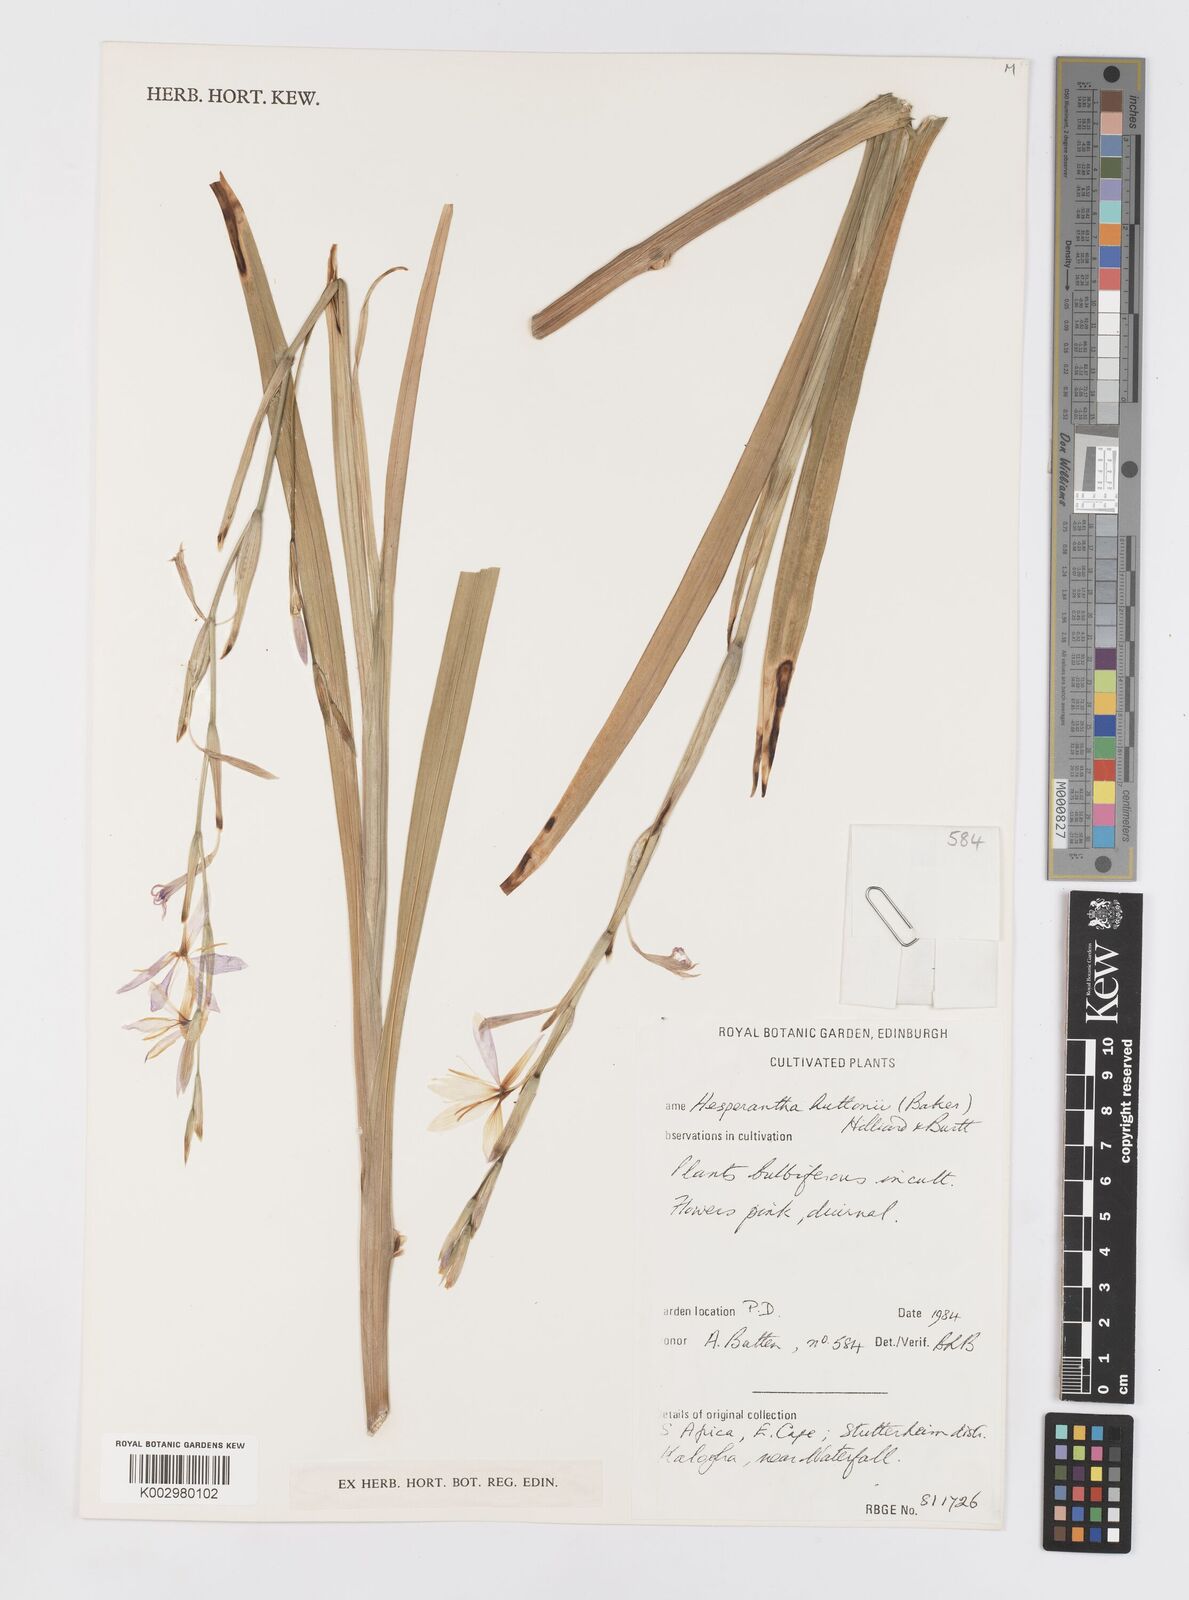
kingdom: Plantae
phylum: Tracheophyta
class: Liliopsida
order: Asparagales
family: Iridaceae
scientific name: Iridaceae
